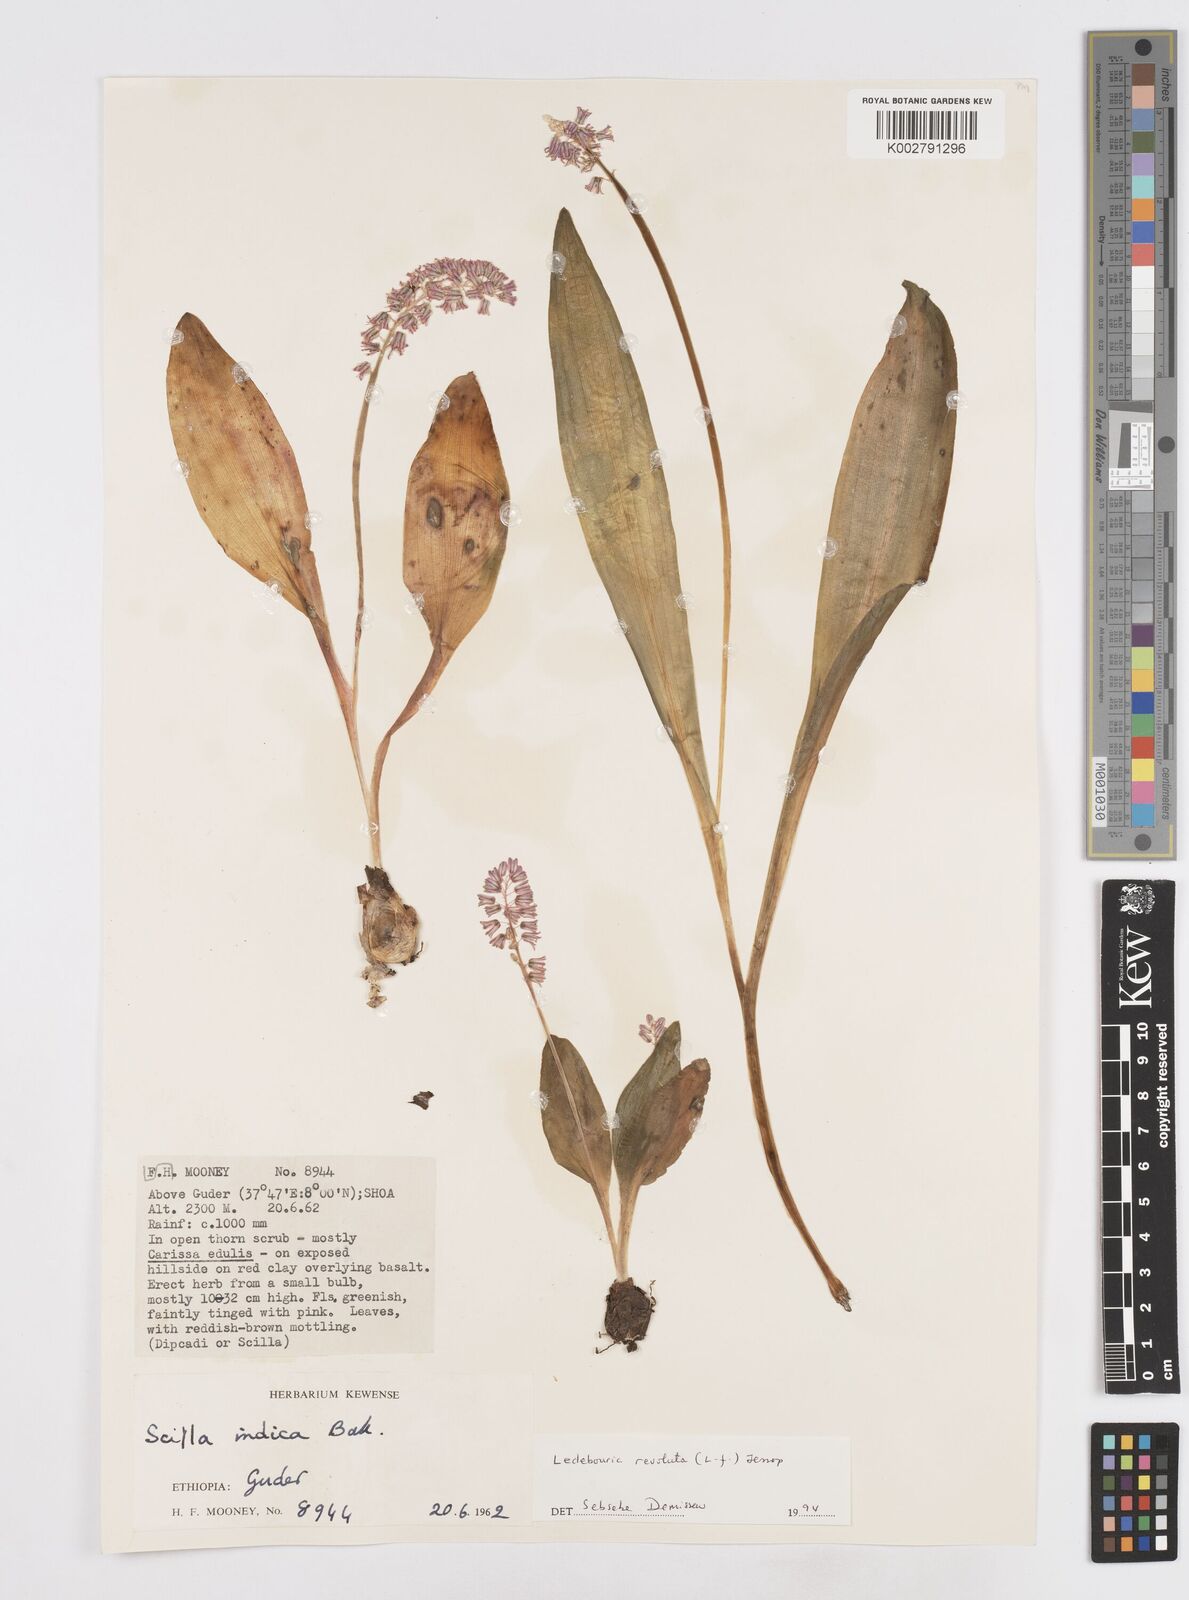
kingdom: Plantae
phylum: Tracheophyta
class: Liliopsida
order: Asparagales
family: Asparagaceae
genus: Ledebouria
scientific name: Ledebouria revoluta
